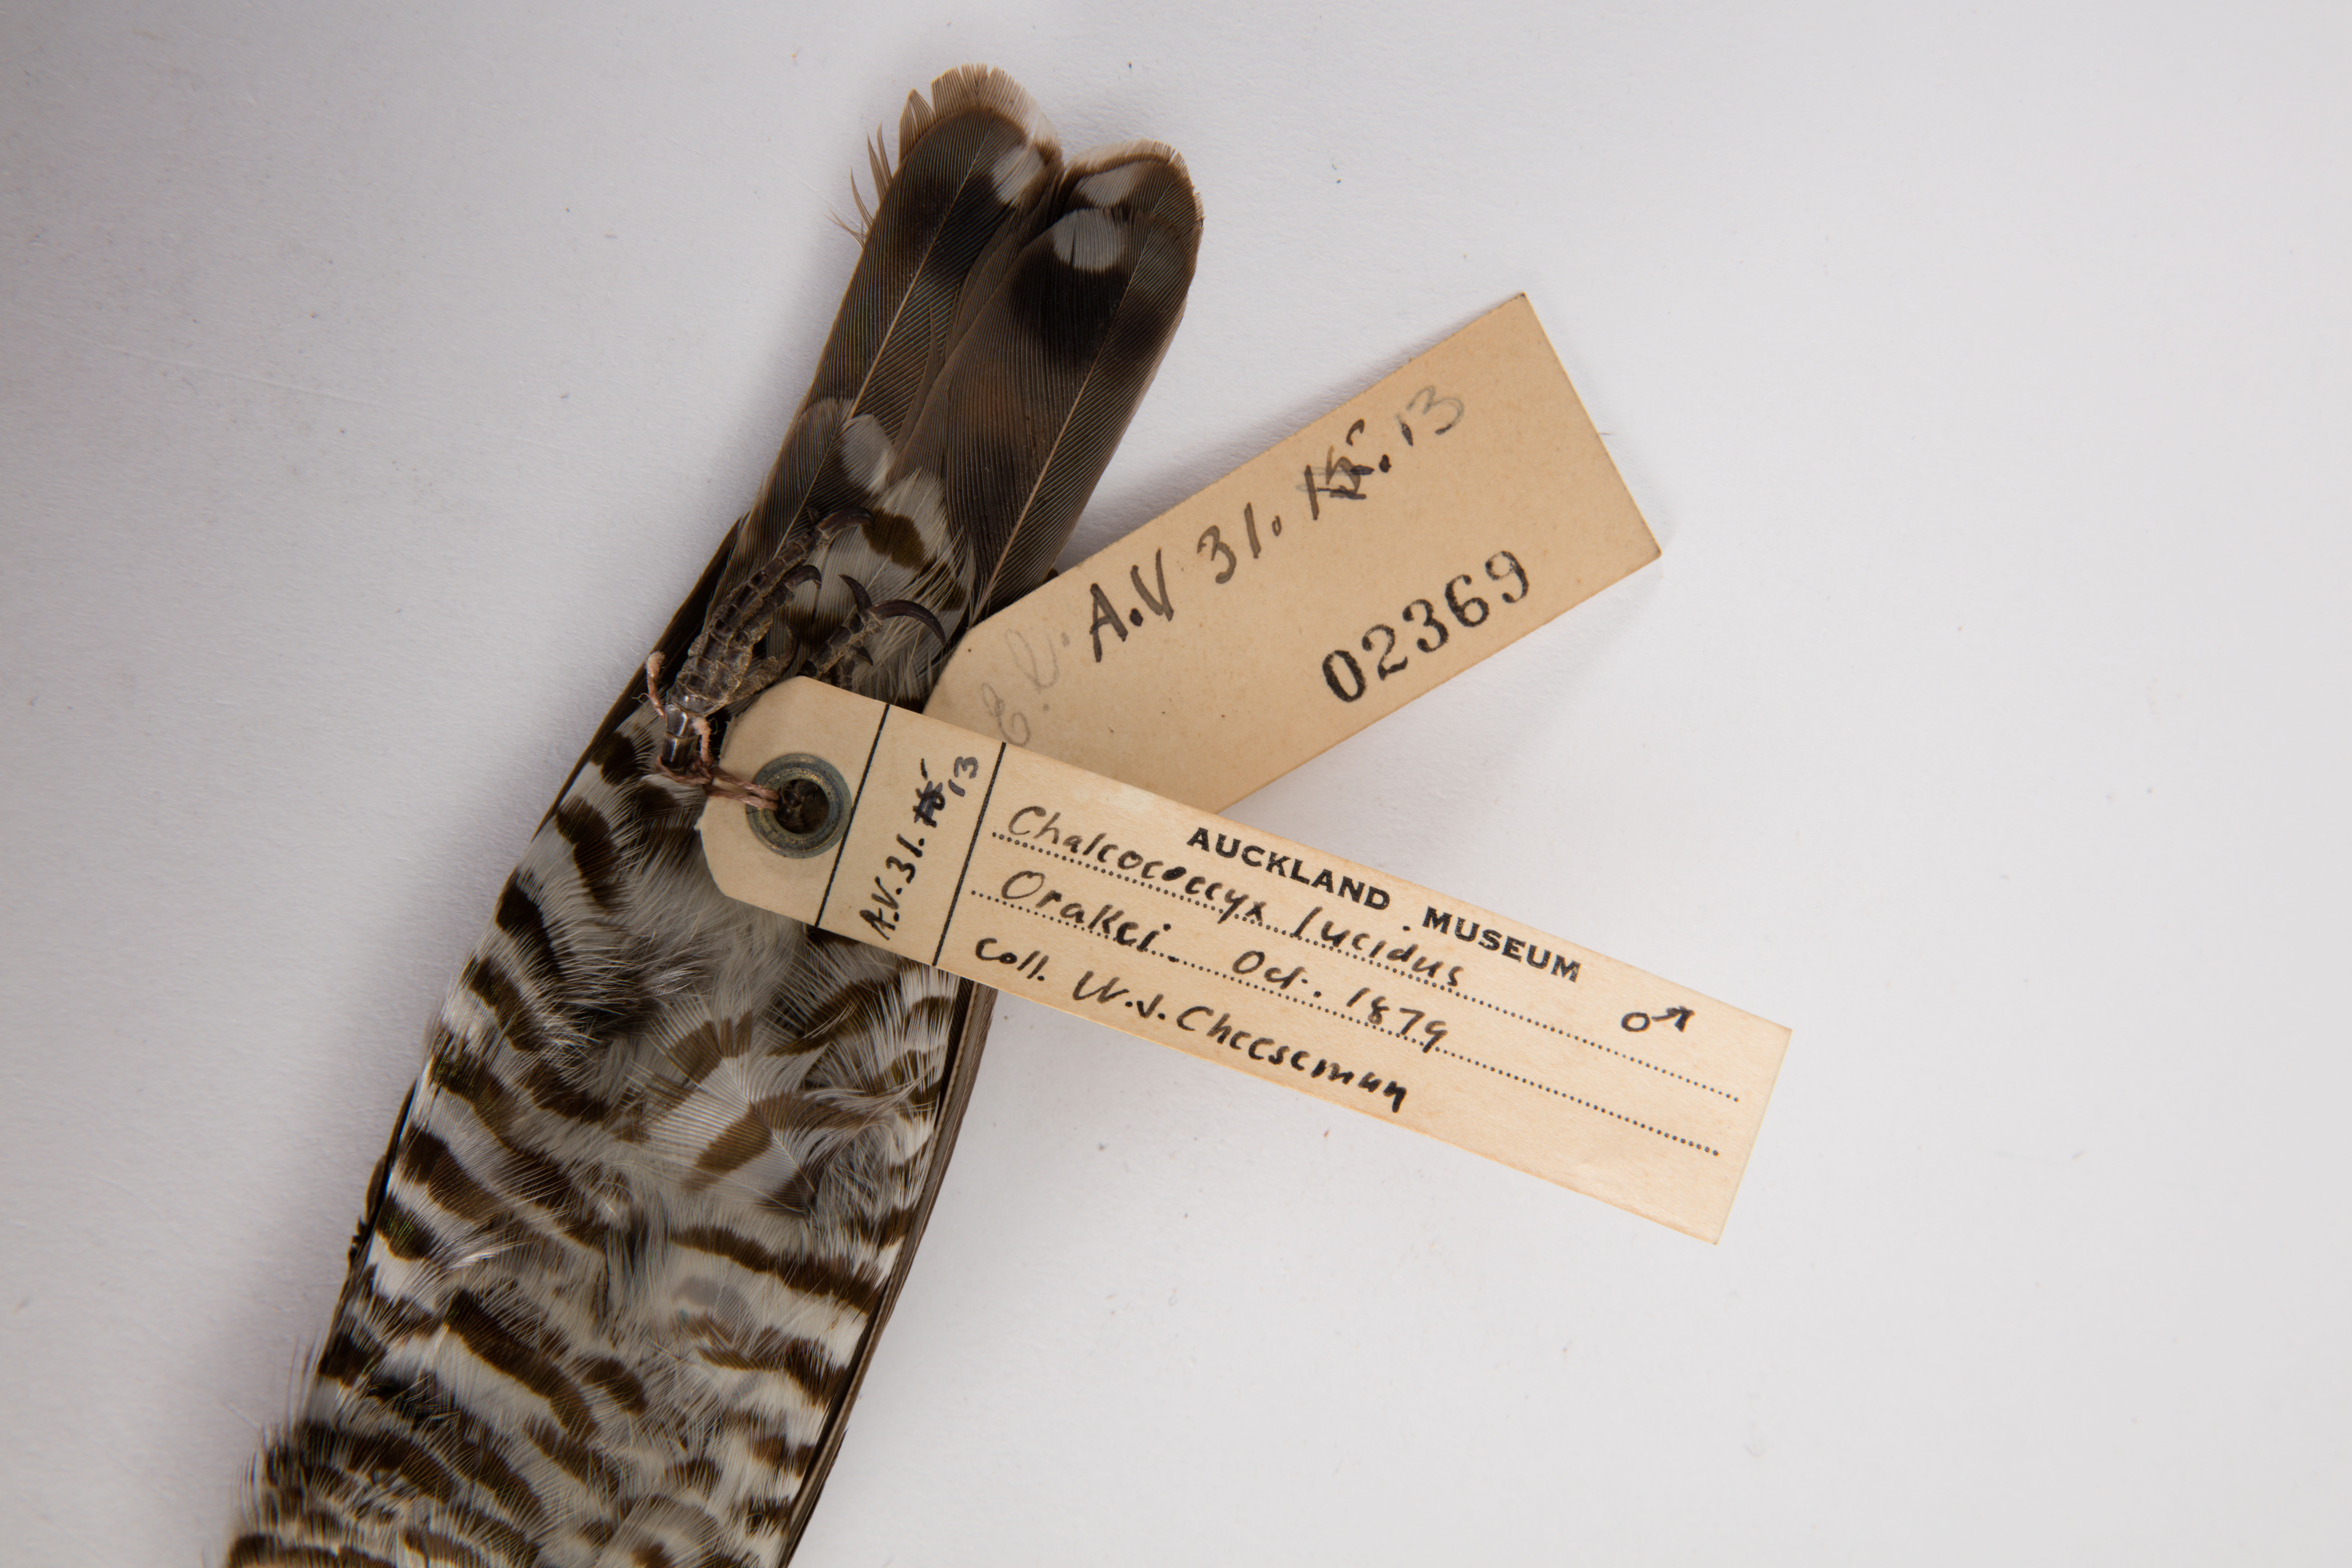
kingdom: Animalia
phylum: Chordata
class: Aves
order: Cuculiformes
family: Cuculidae
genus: Chrysococcyx
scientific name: Chrysococcyx lucidus
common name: Shining bronze cuckoo
